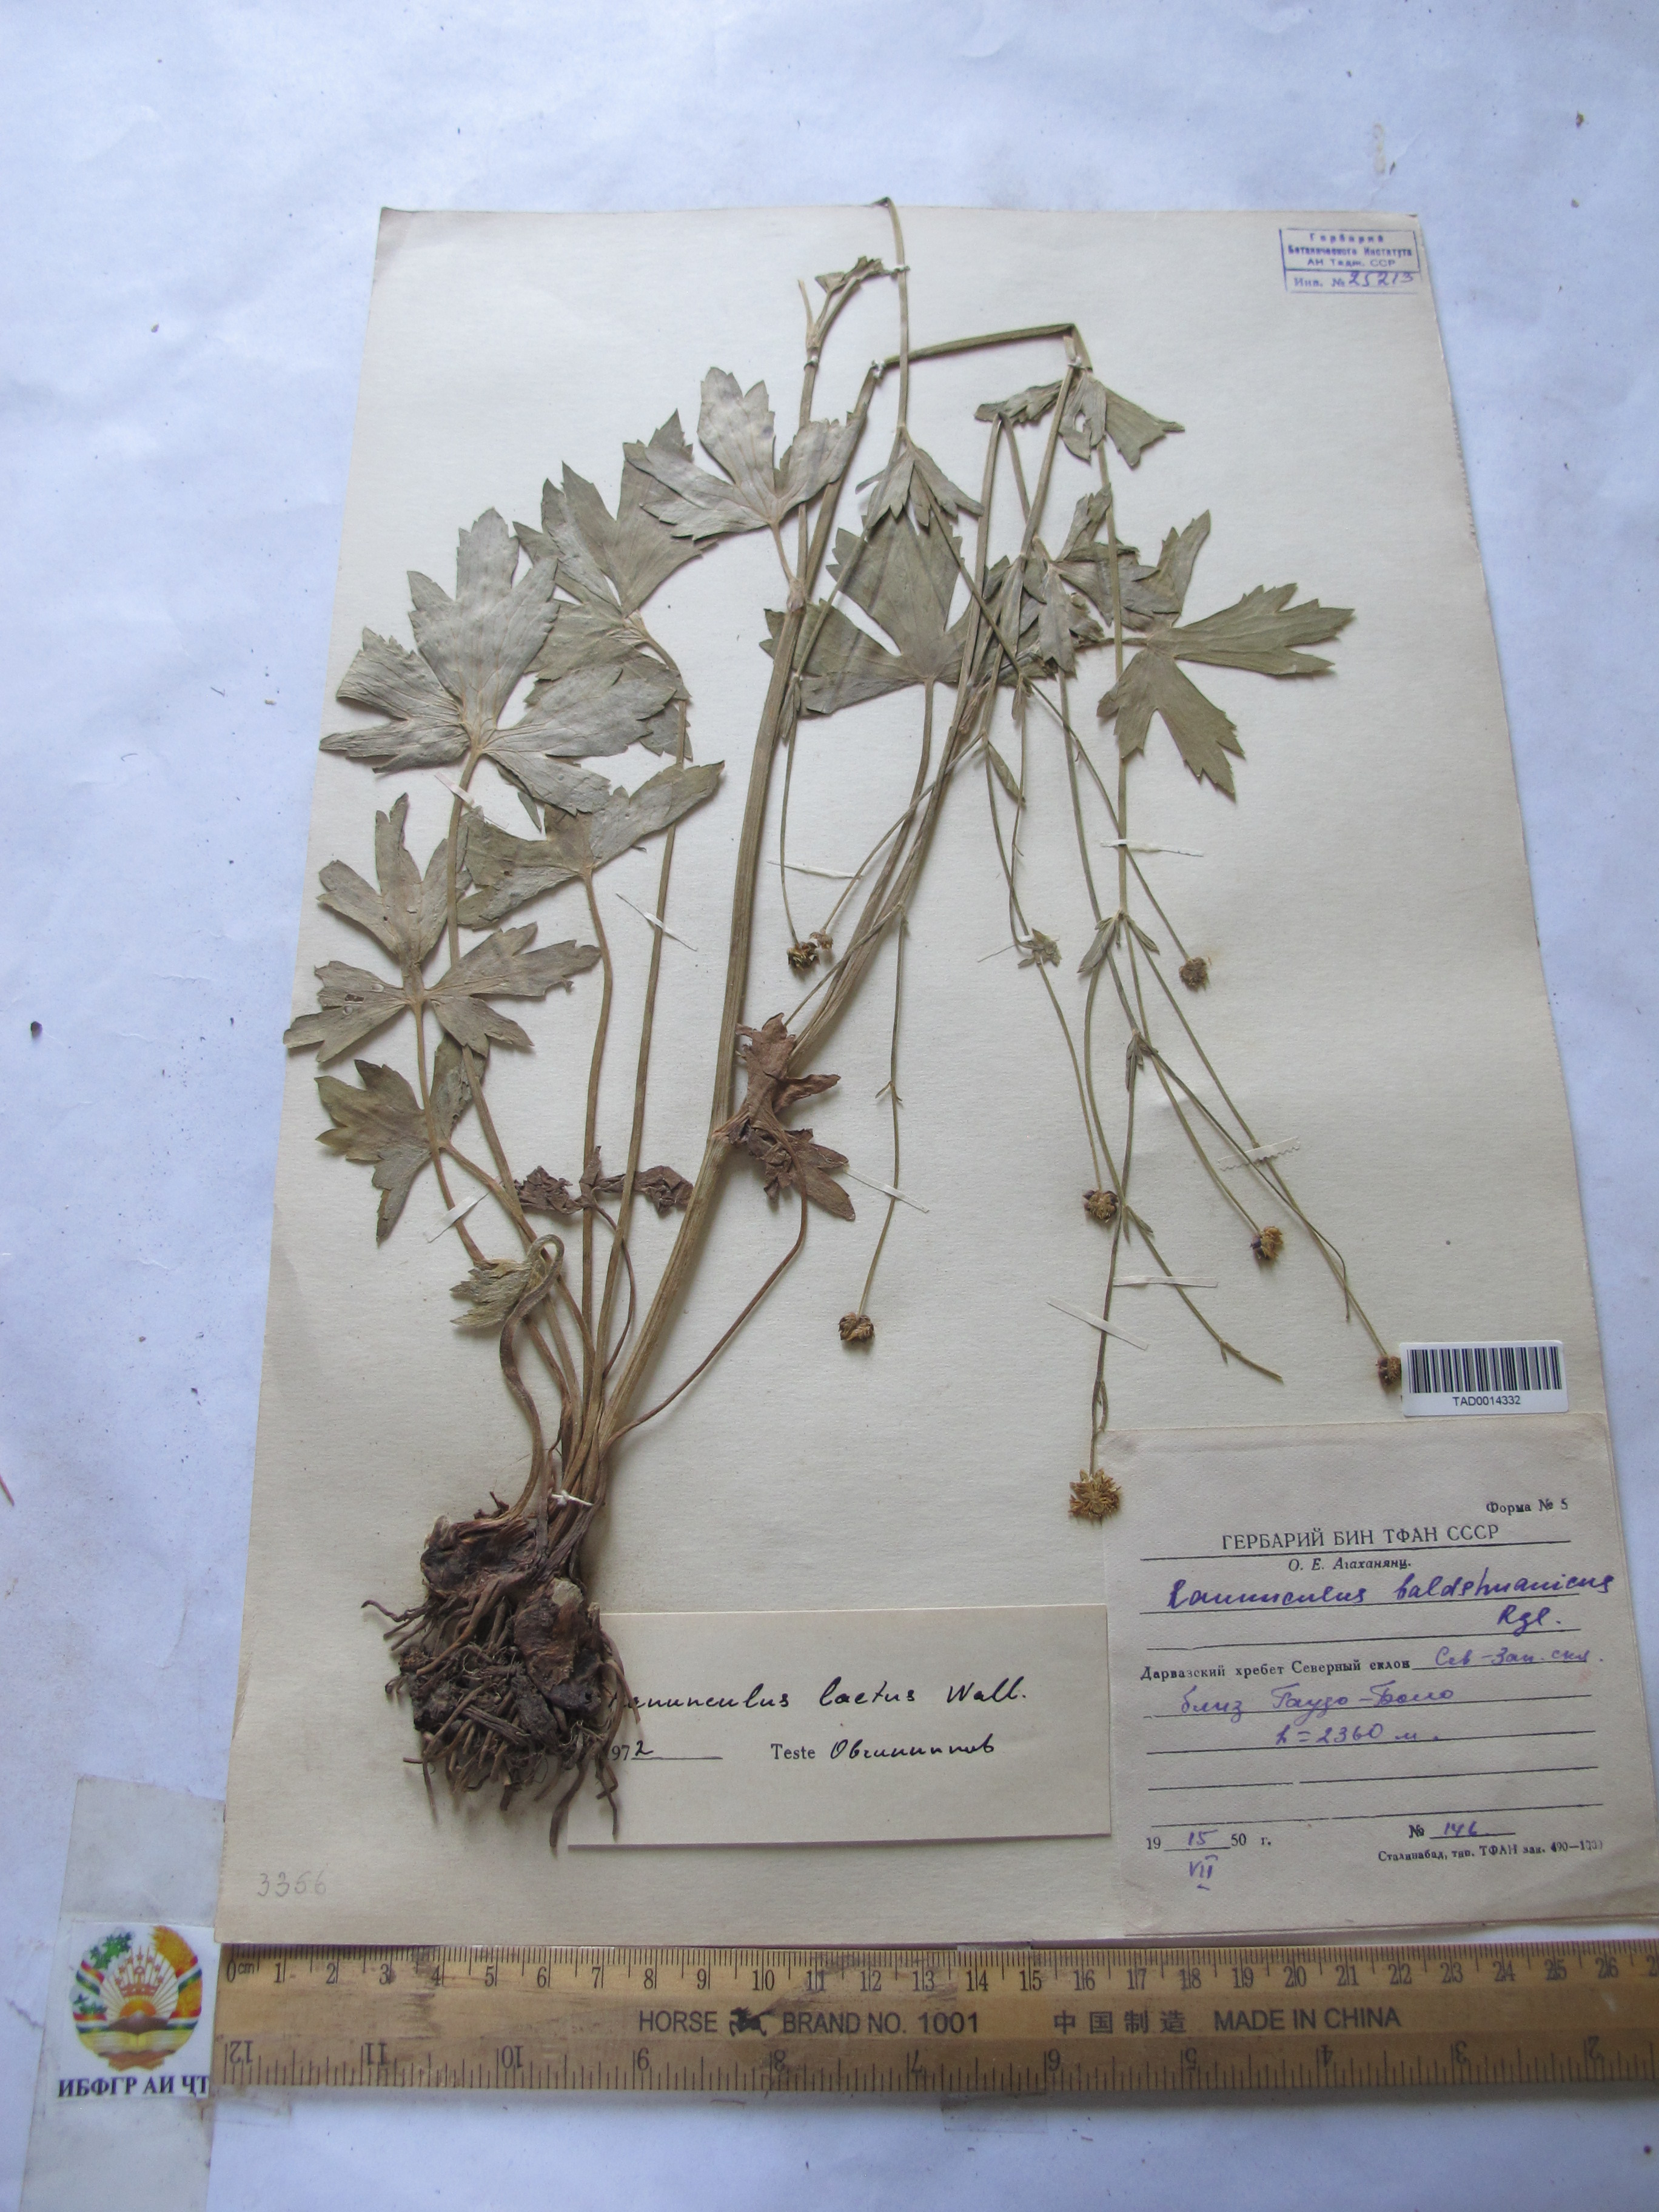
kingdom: Plantae
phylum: Tracheophyta
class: Magnoliopsida
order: Ranunculales
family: Ranunculaceae
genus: Ranunculus
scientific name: Ranunculus distans
